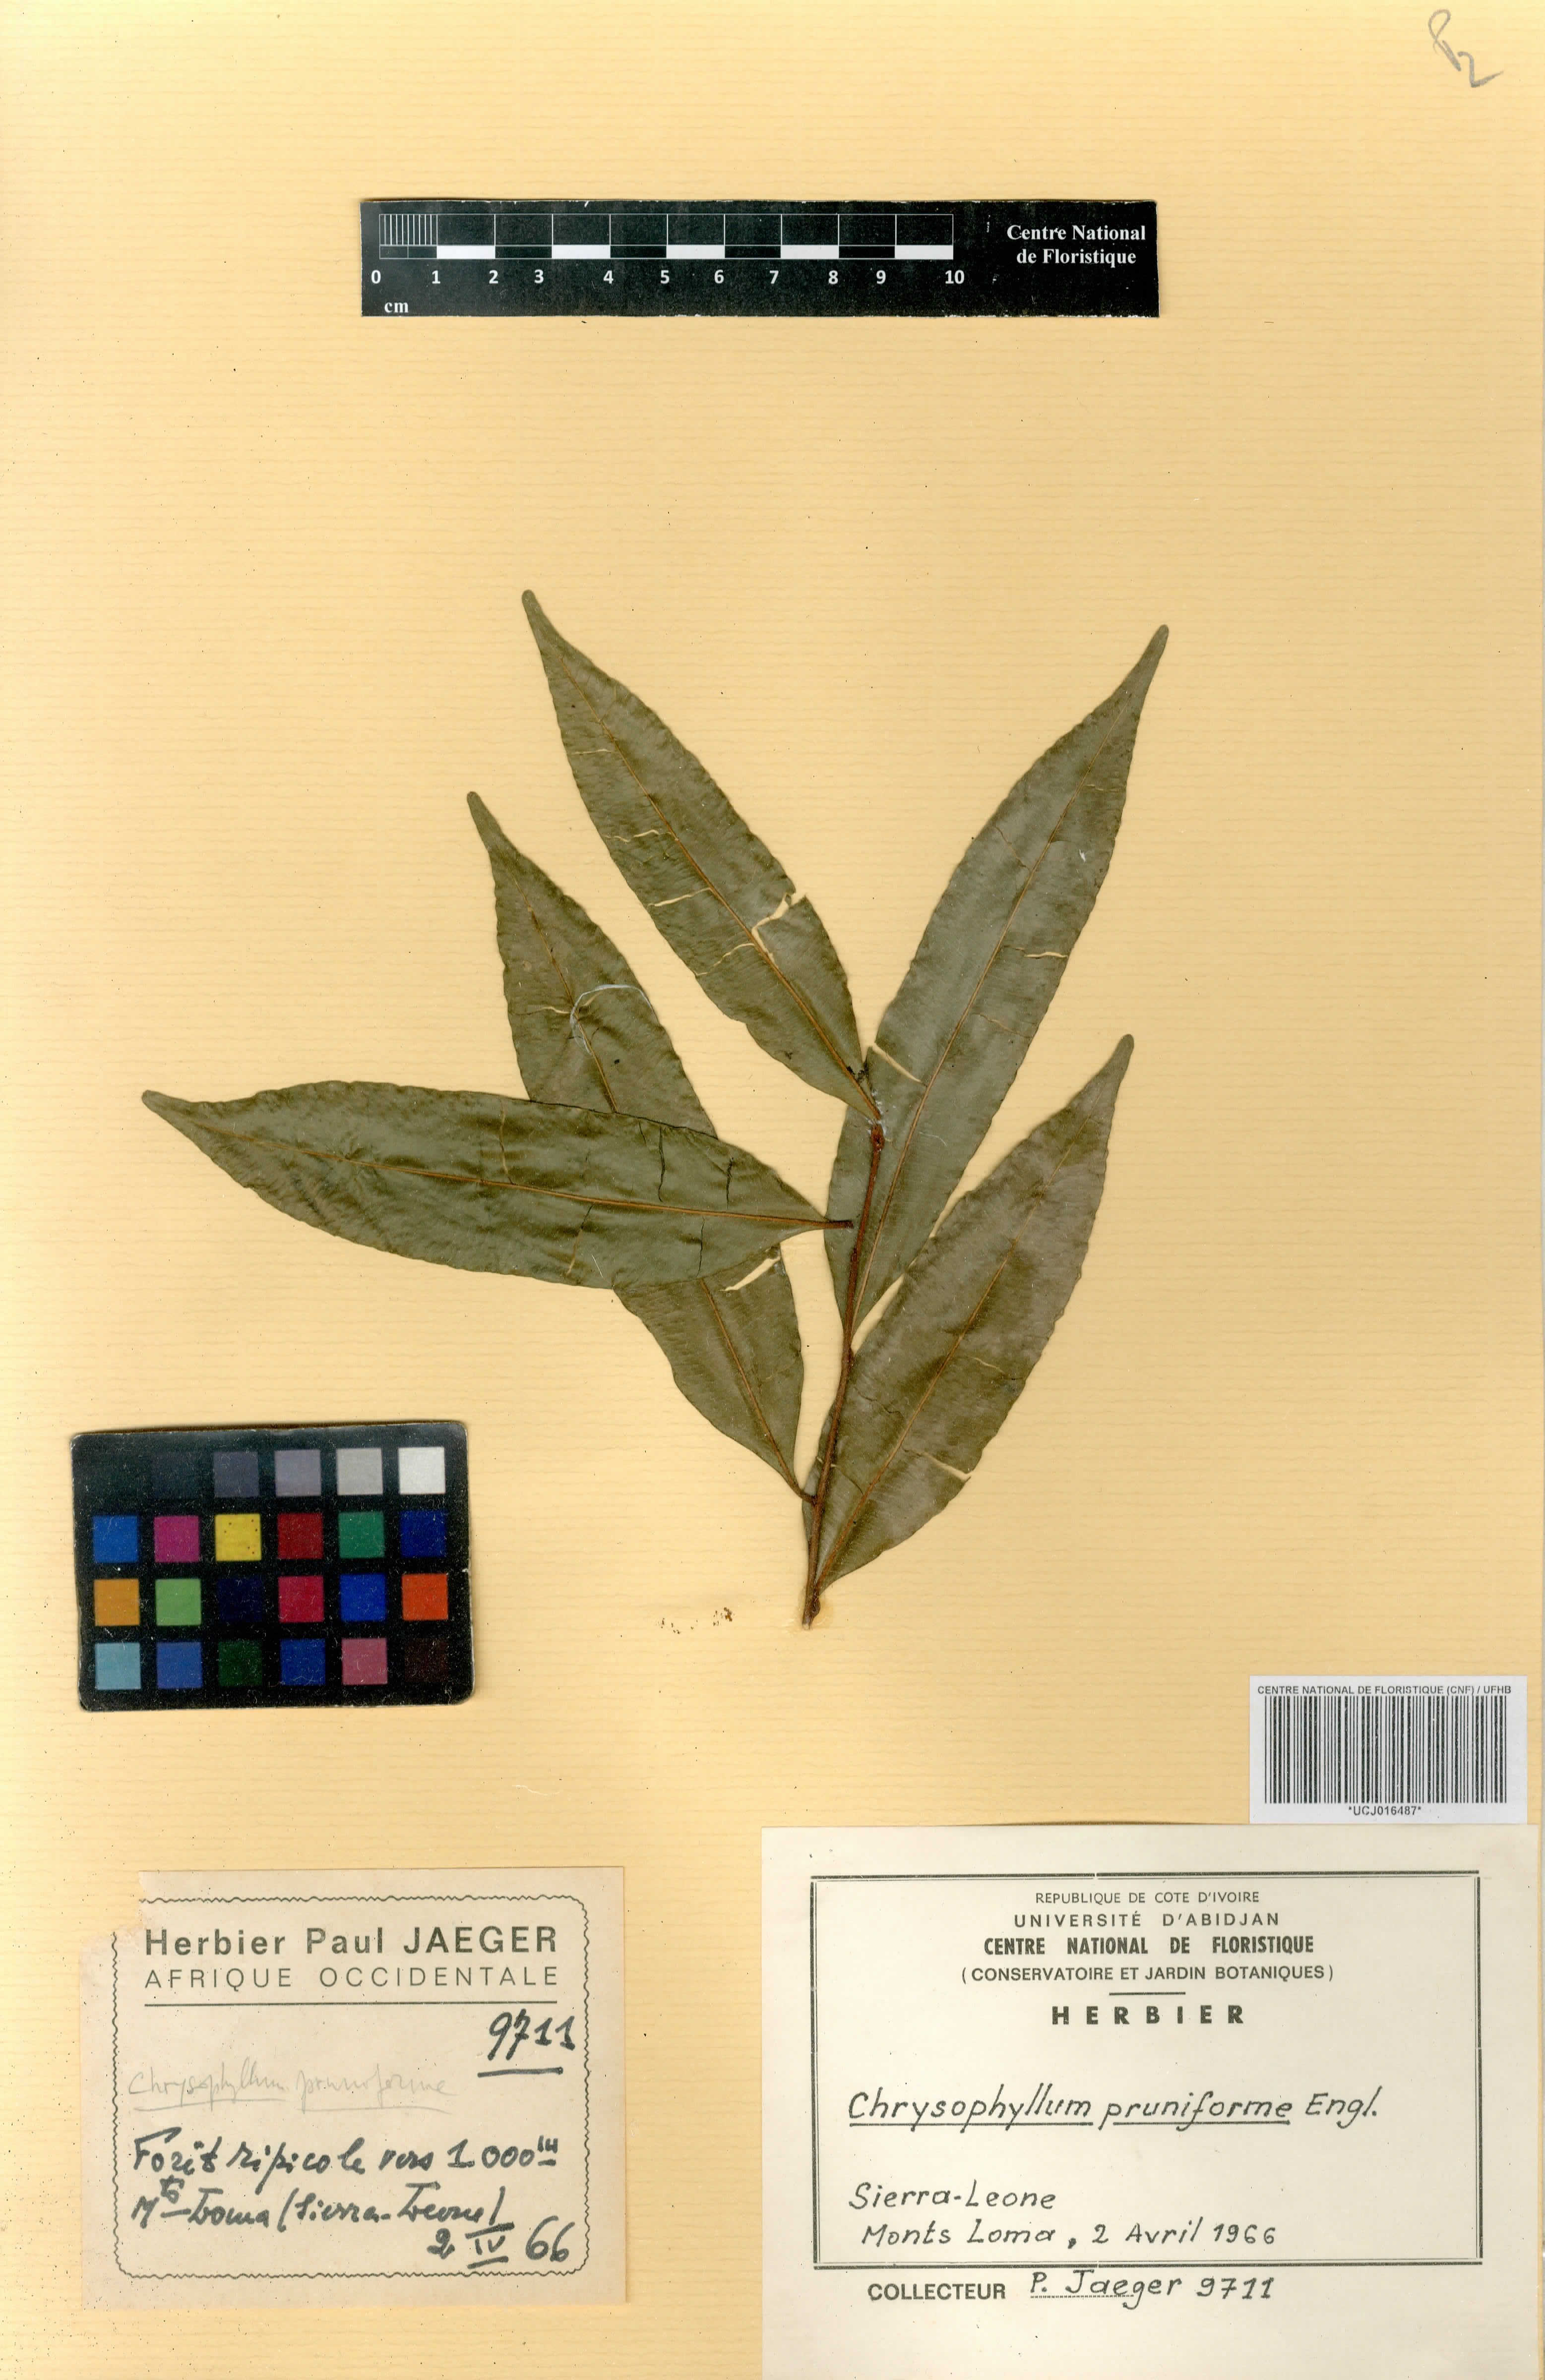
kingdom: Plantae
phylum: Tracheophyta
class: Magnoliopsida
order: Ericales
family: Sapotaceae
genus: Donella
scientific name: Donella pruniformis
